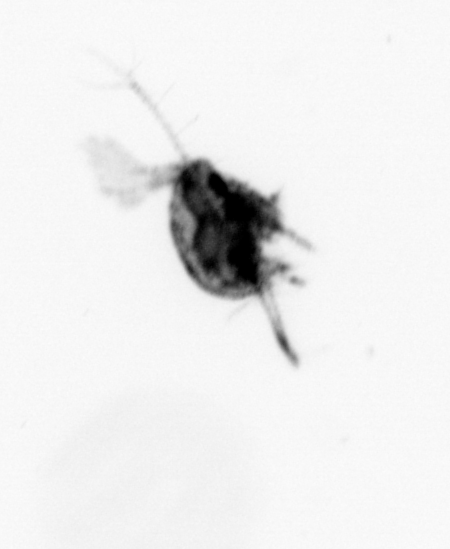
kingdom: Animalia
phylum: Arthropoda
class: Copepoda
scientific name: Copepoda
